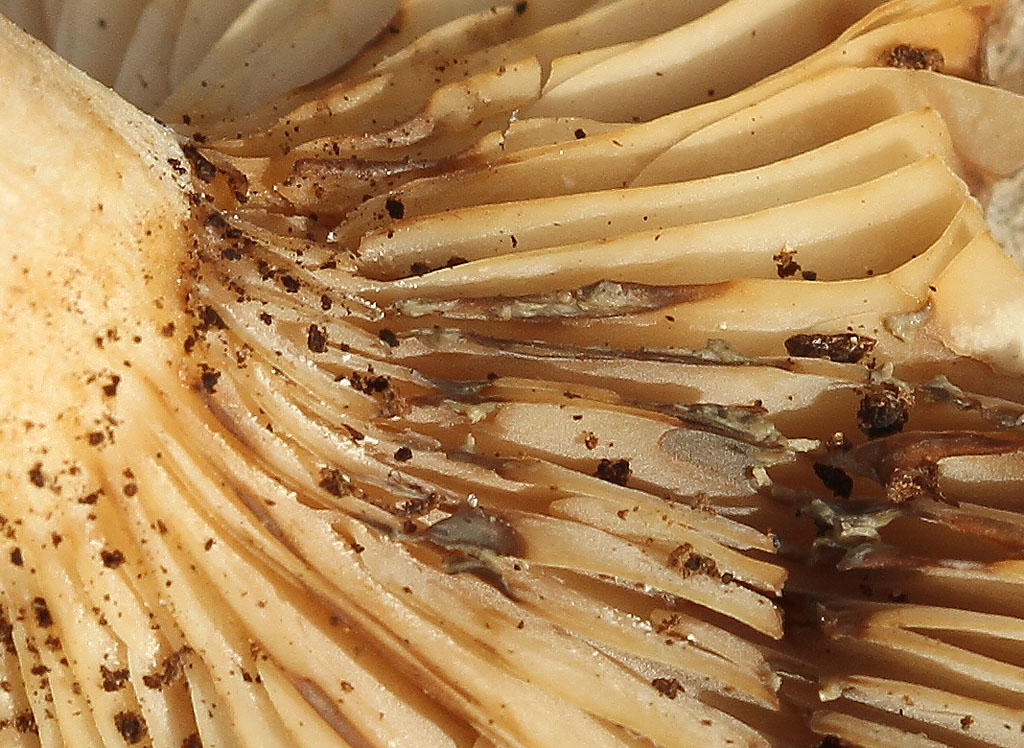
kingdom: Fungi
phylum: Basidiomycota
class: Agaricomycetes
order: Russulales
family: Russulaceae
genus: Lactarius
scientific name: Lactarius vietus
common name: violetgrå mælkehat
